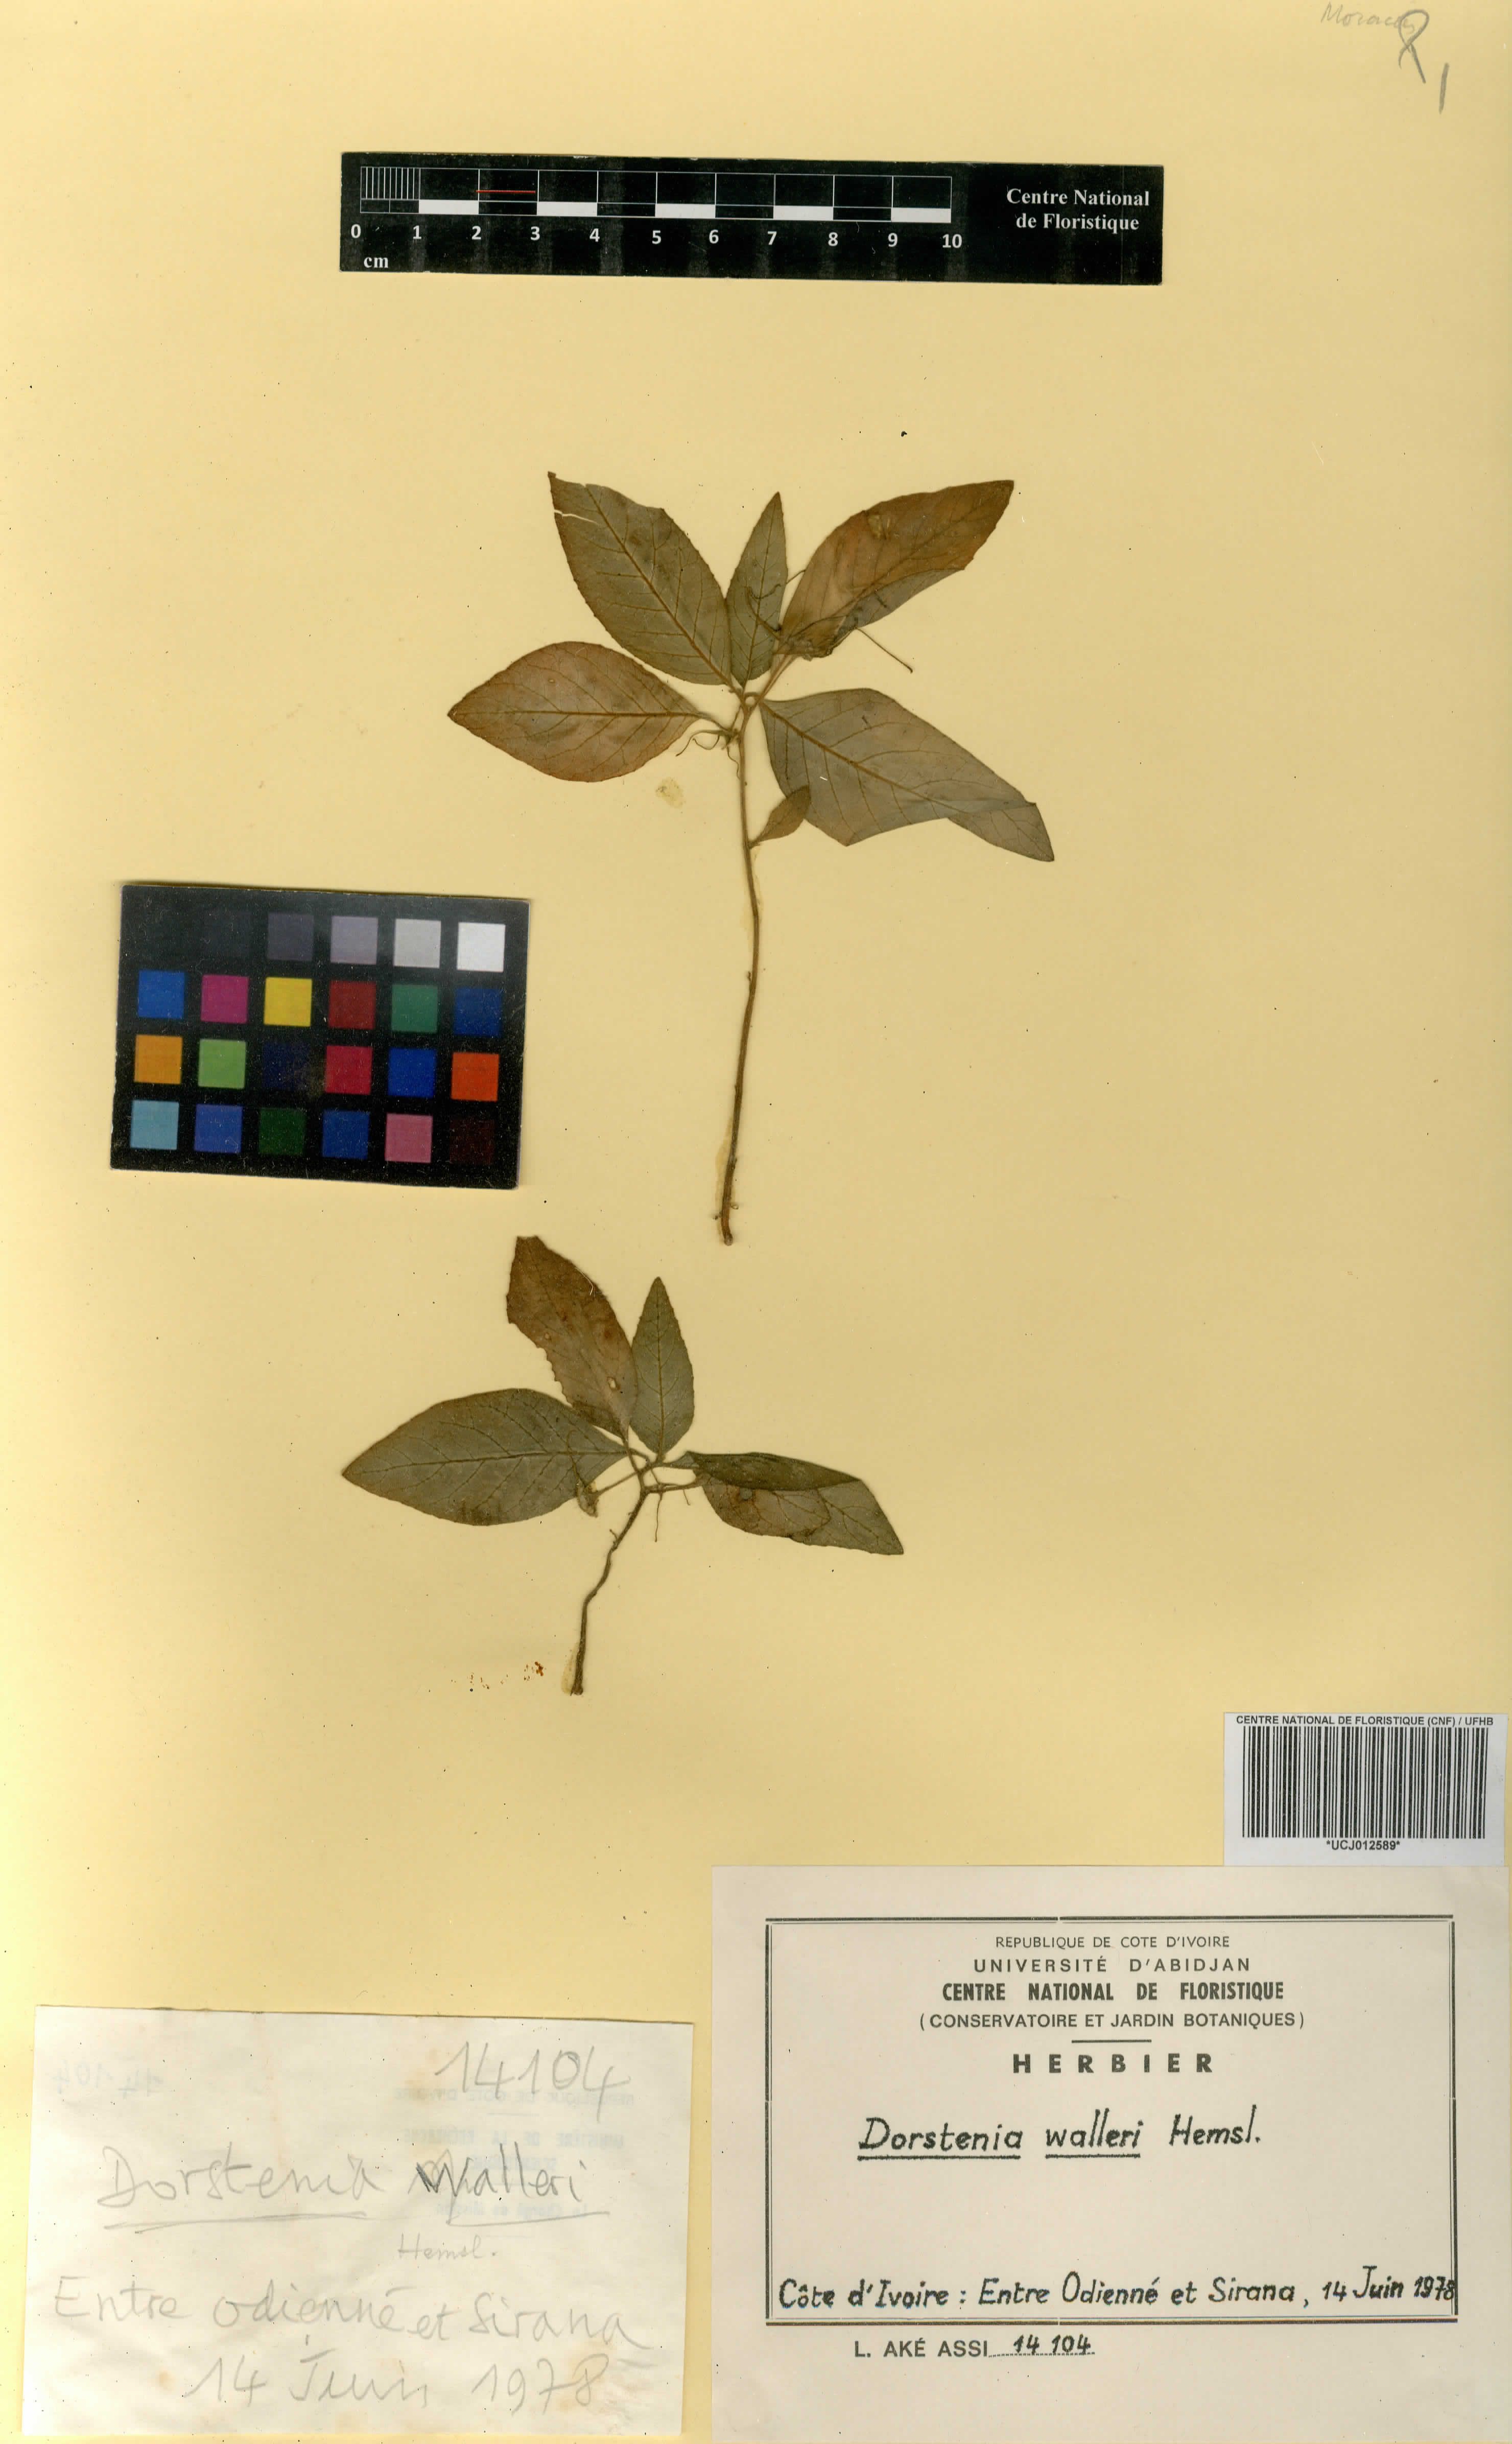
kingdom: Plantae
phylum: Tracheophyta
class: Magnoliopsida
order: Rosales
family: Moraceae
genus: Dorstenia
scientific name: Dorstenia cuspidata
